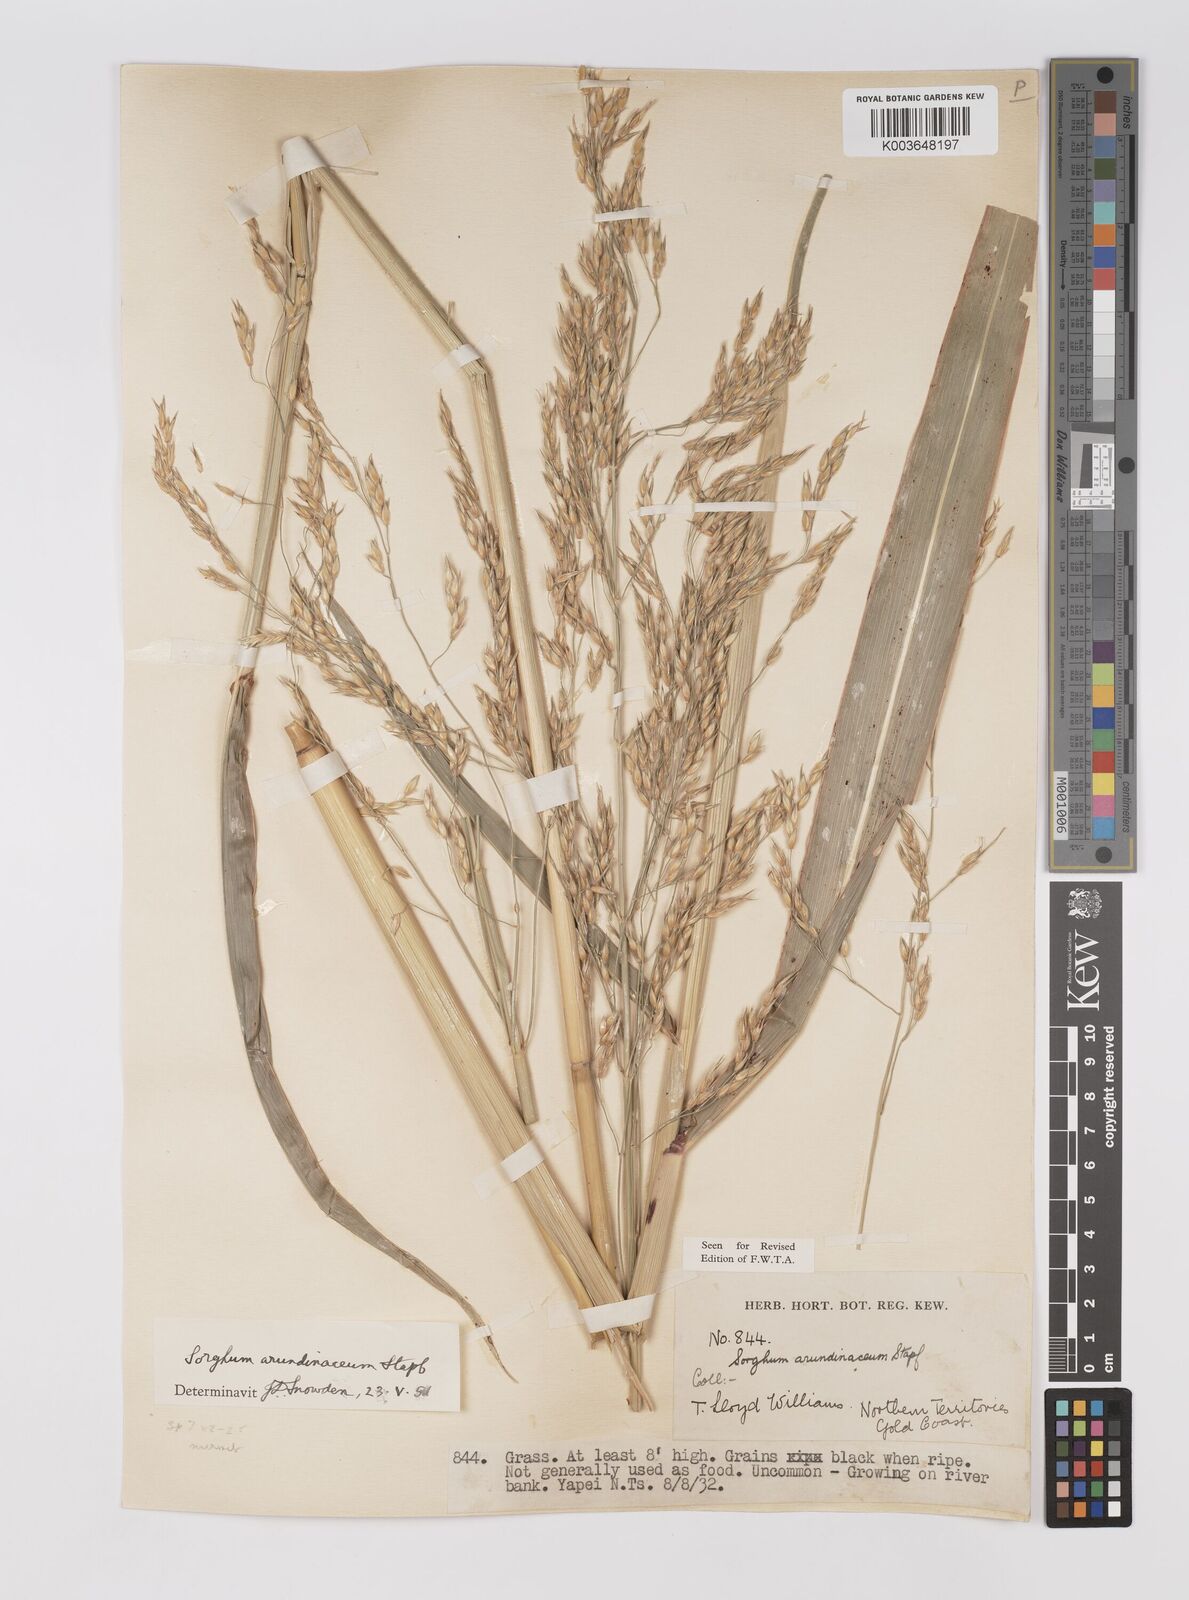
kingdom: Plantae
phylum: Tracheophyta
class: Liliopsida
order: Poales
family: Poaceae
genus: Sorghum
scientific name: Sorghum arundinaceum
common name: Sorghum
